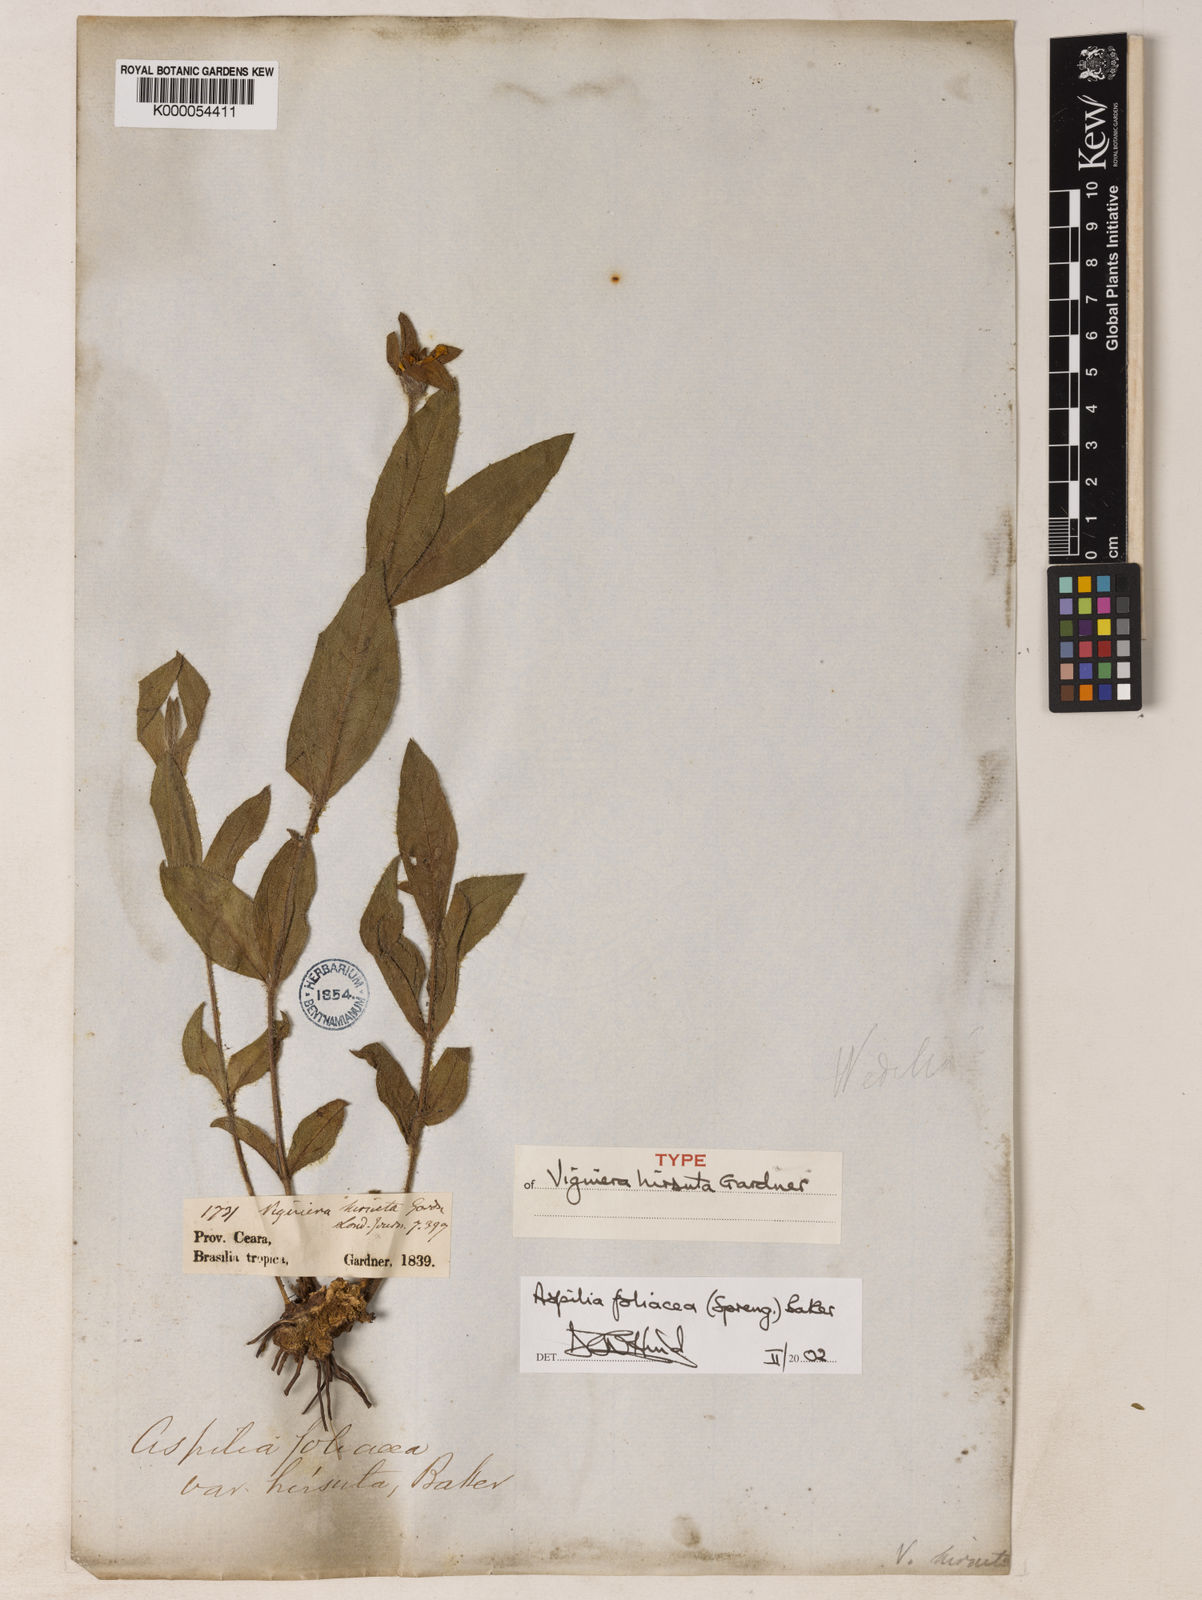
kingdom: Plantae
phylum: Tracheophyta
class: Magnoliopsida
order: Asterales
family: Asteraceae
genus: Wedelia
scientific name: Wedelia foliacea
